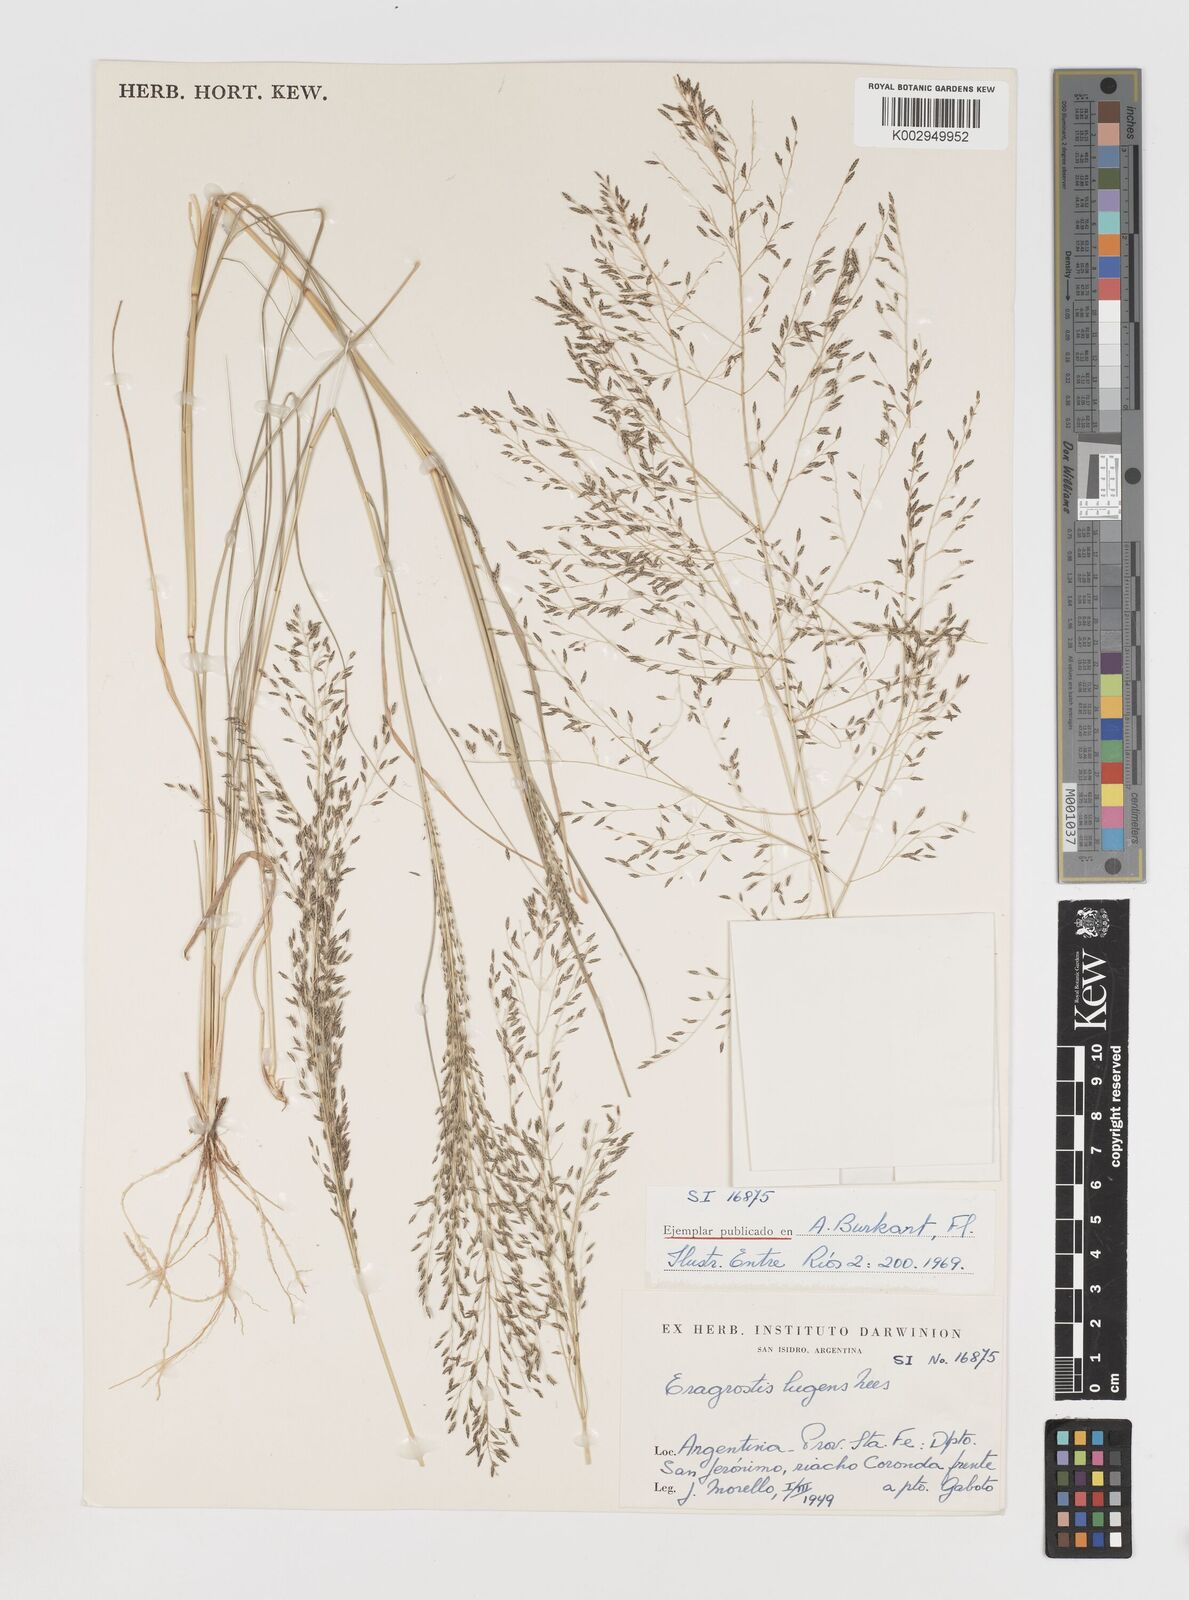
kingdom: Plantae
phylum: Tracheophyta
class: Liliopsida
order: Poales
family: Poaceae
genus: Eragrostis
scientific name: Eragrostis
